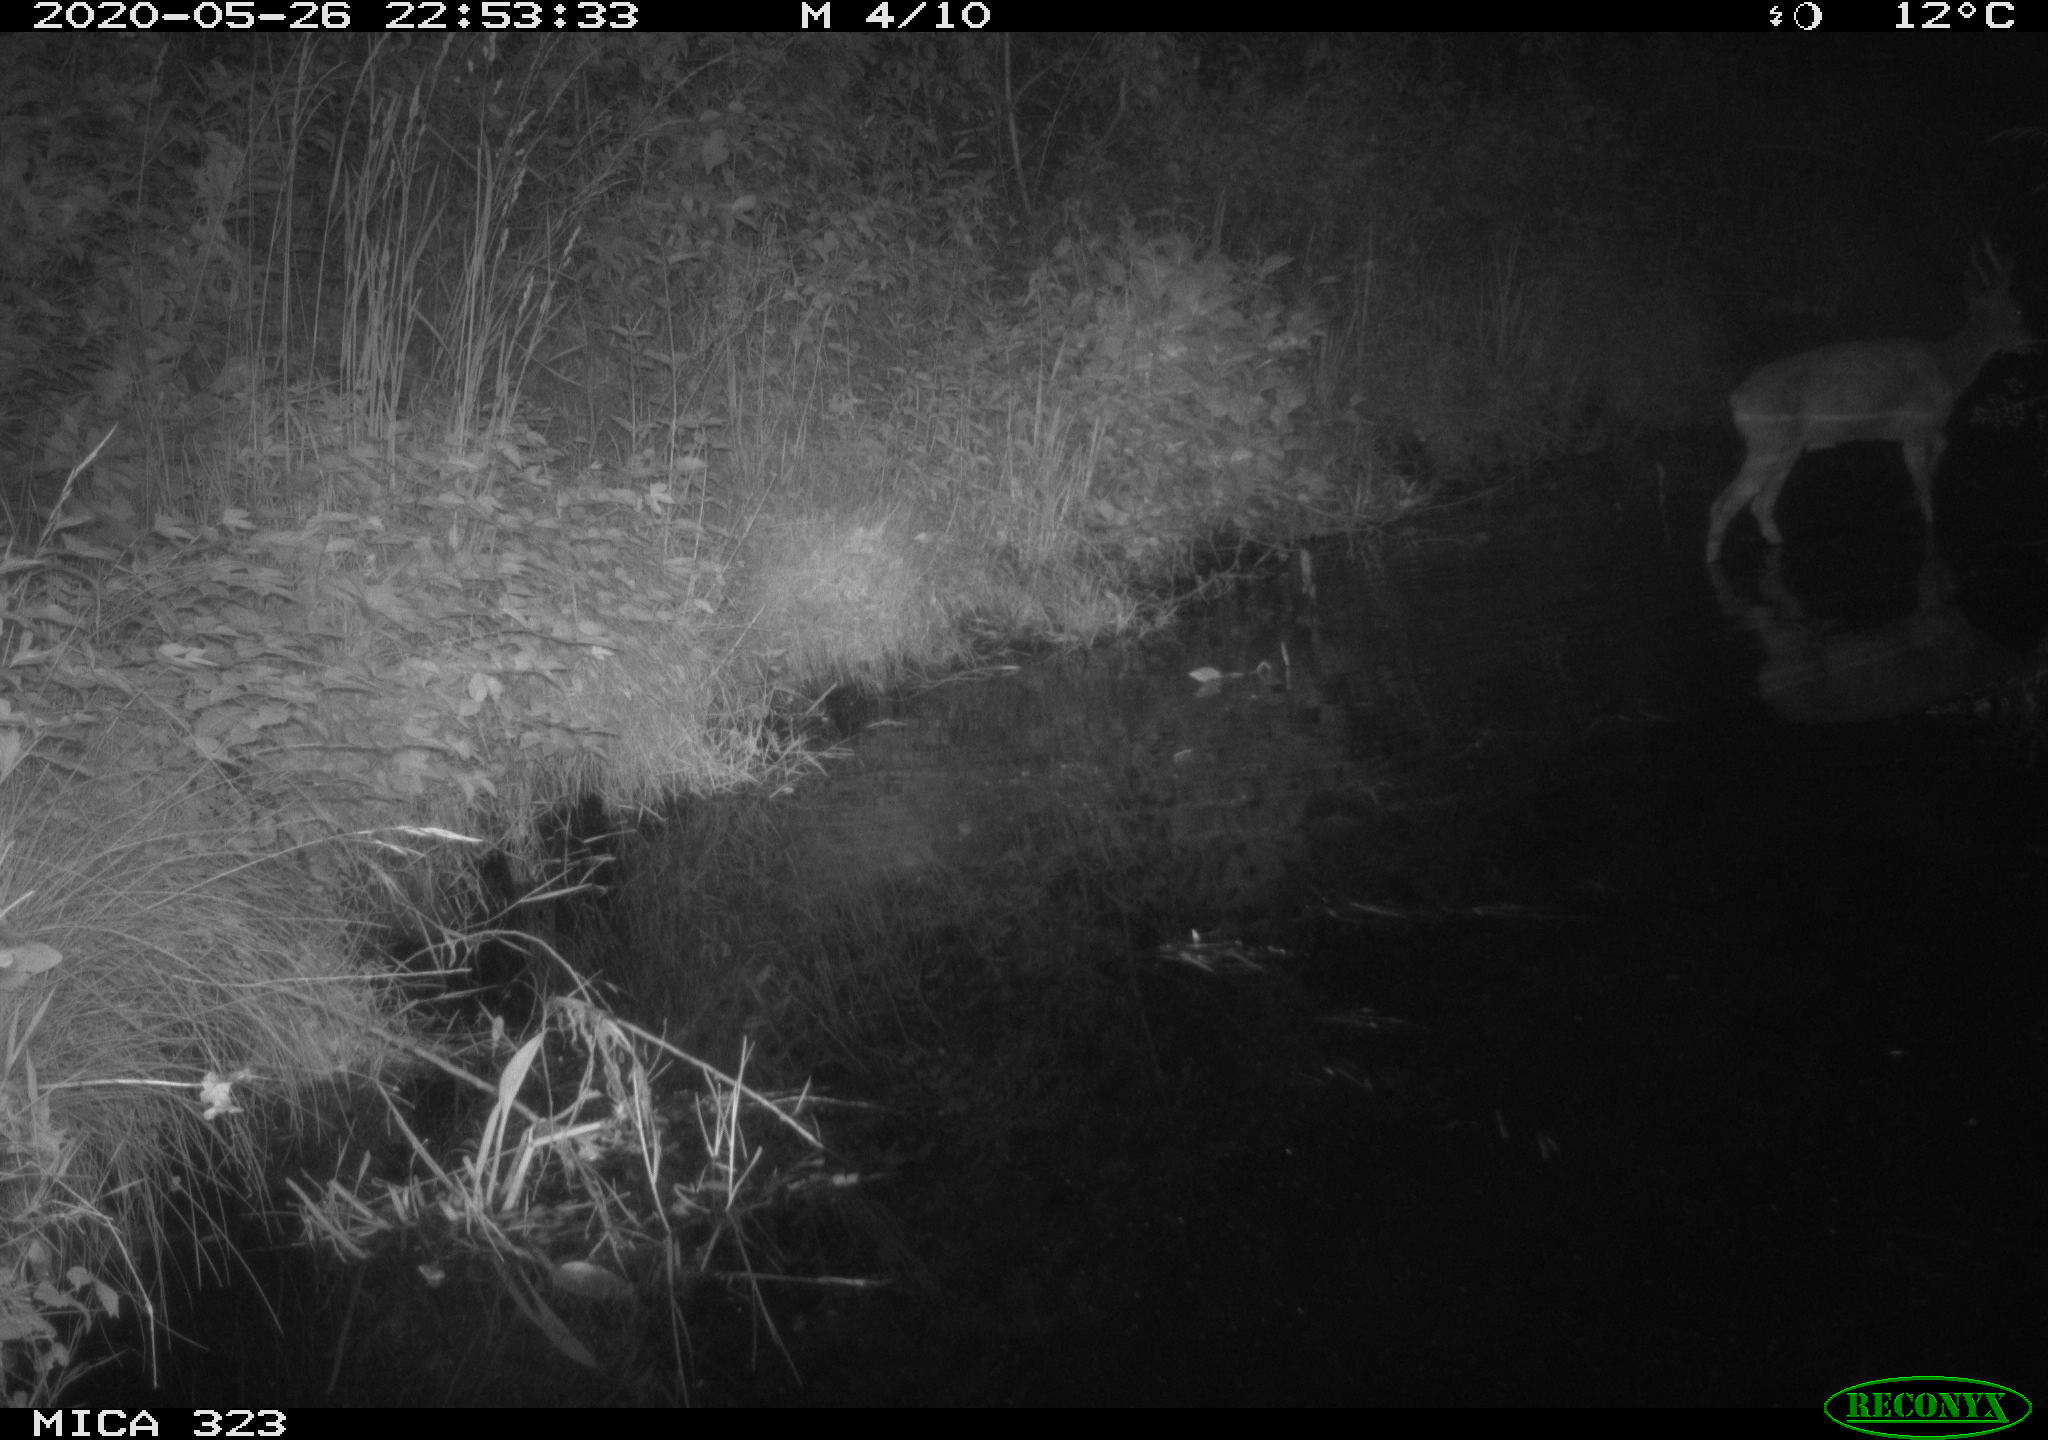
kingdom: Animalia
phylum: Chordata
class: Mammalia
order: Artiodactyla
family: Cervidae
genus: Capreolus
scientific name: Capreolus capreolus
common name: Western roe deer
